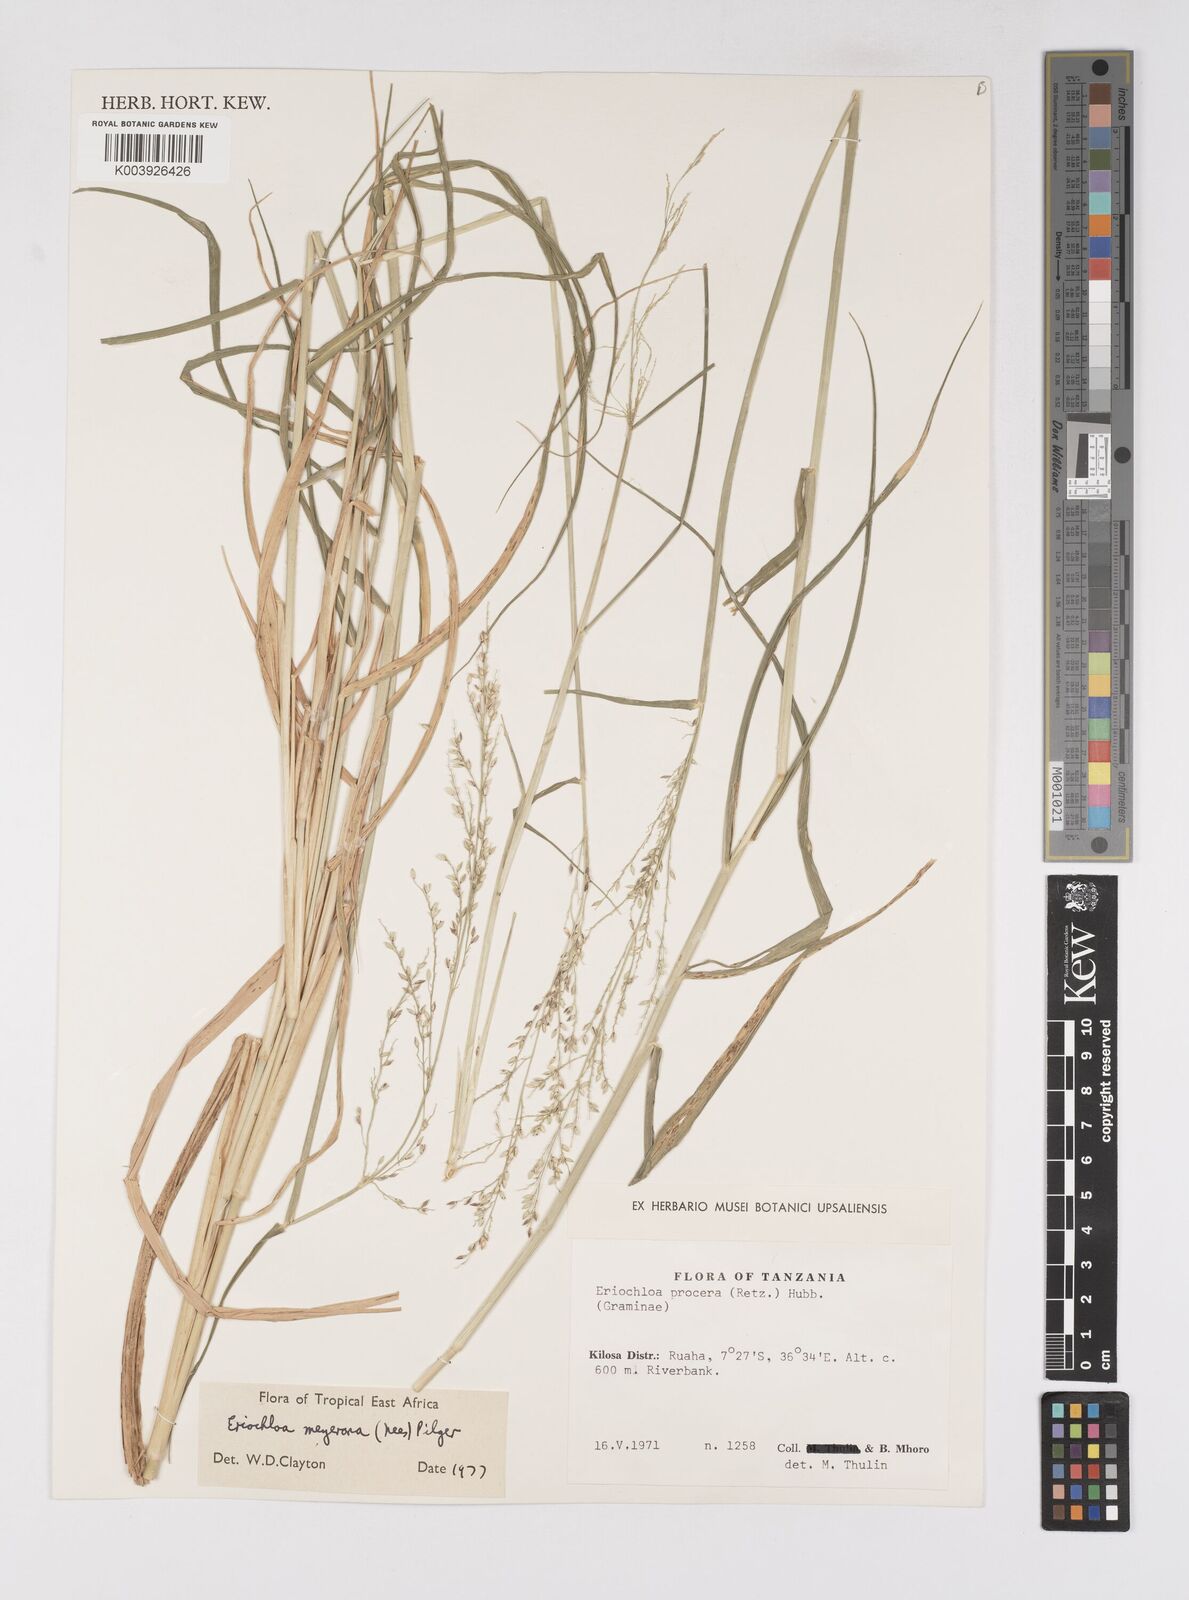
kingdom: Plantae
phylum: Tracheophyta
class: Liliopsida
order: Poales
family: Poaceae
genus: Eriochloa
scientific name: Eriochloa meyeriana
